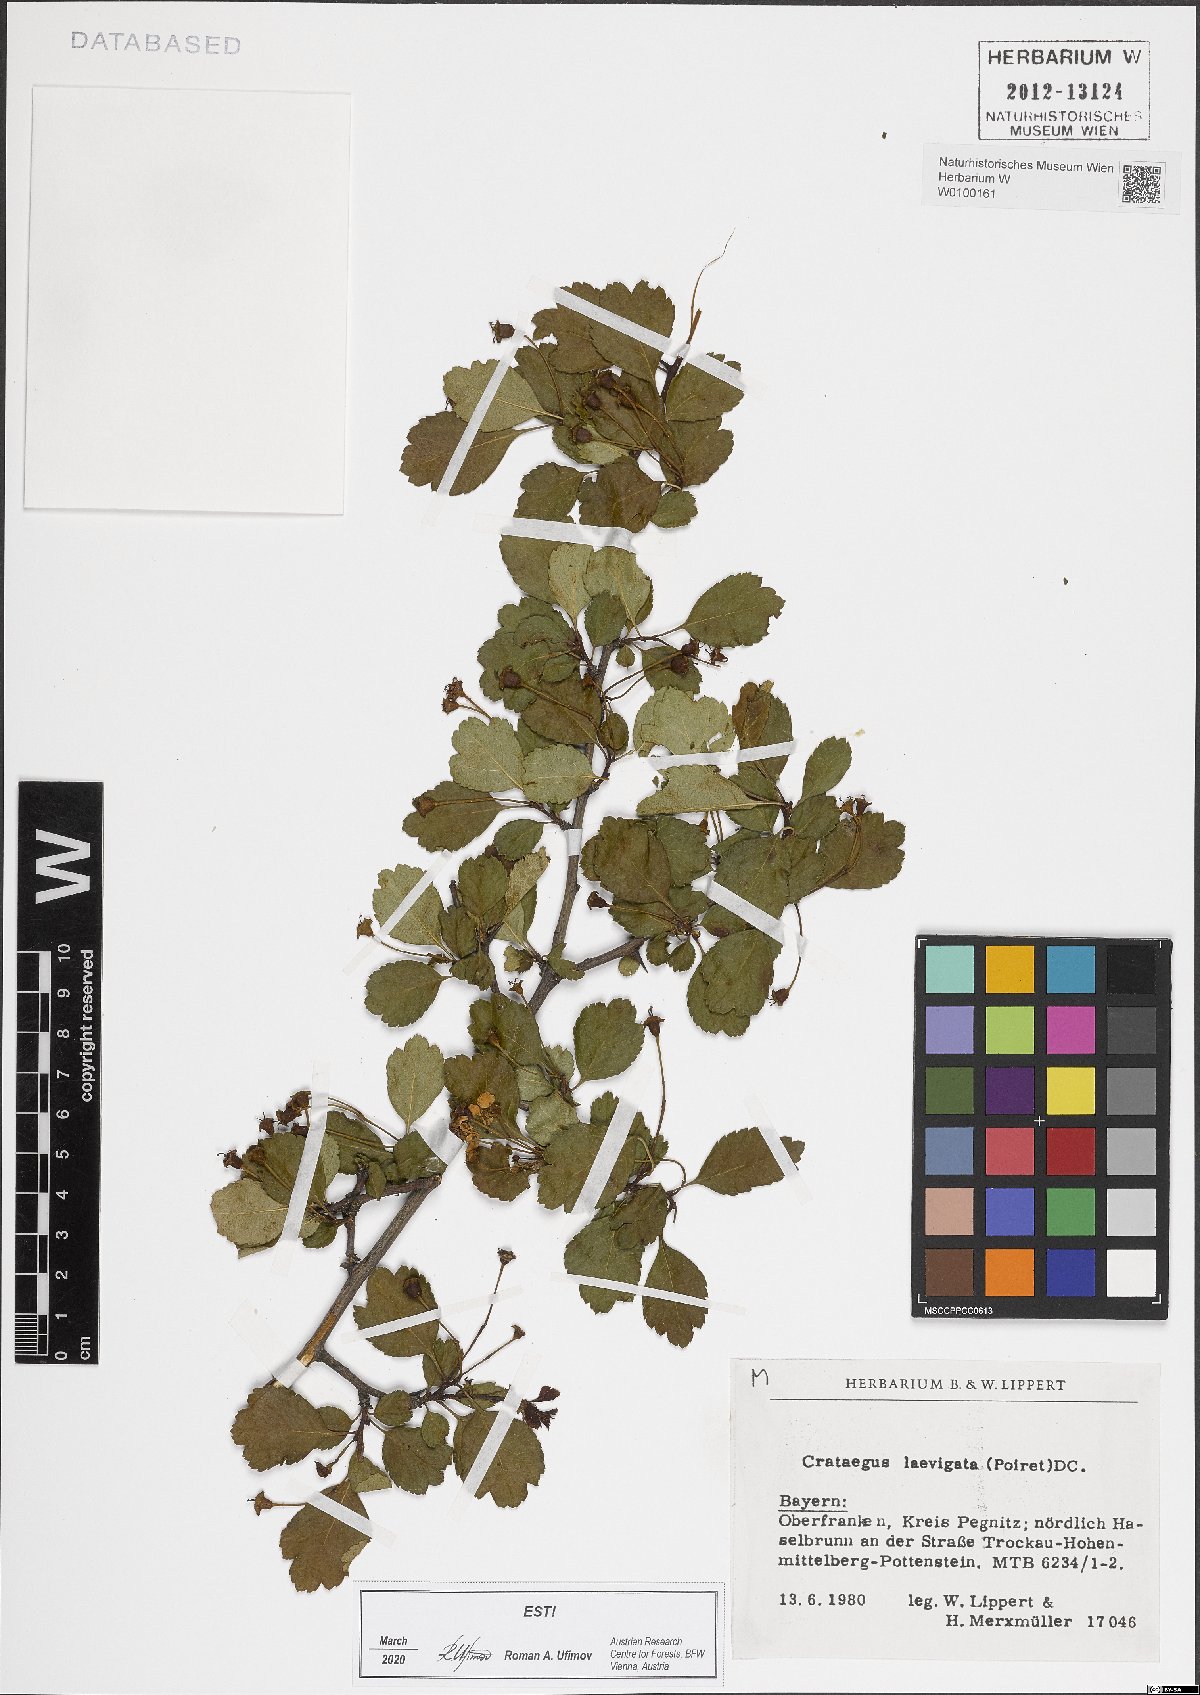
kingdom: Plantae
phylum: Tracheophyta
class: Magnoliopsida
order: Rosales
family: Rosaceae
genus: Crataegus
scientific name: Crataegus laevigata
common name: Midland hawthorn
